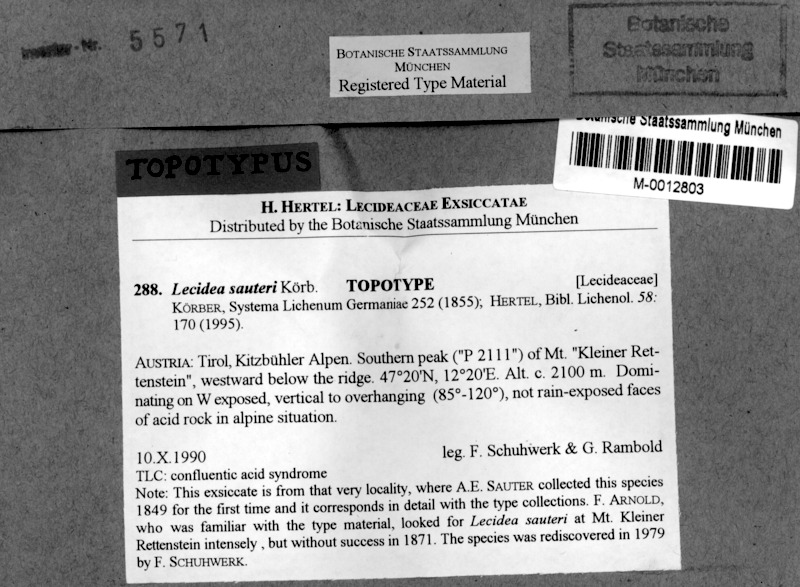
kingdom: Fungi
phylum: Ascomycota
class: Lecanoromycetes
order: Lecideales
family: Lecideaceae
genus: Lecidea
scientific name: Lecidea sauteri
